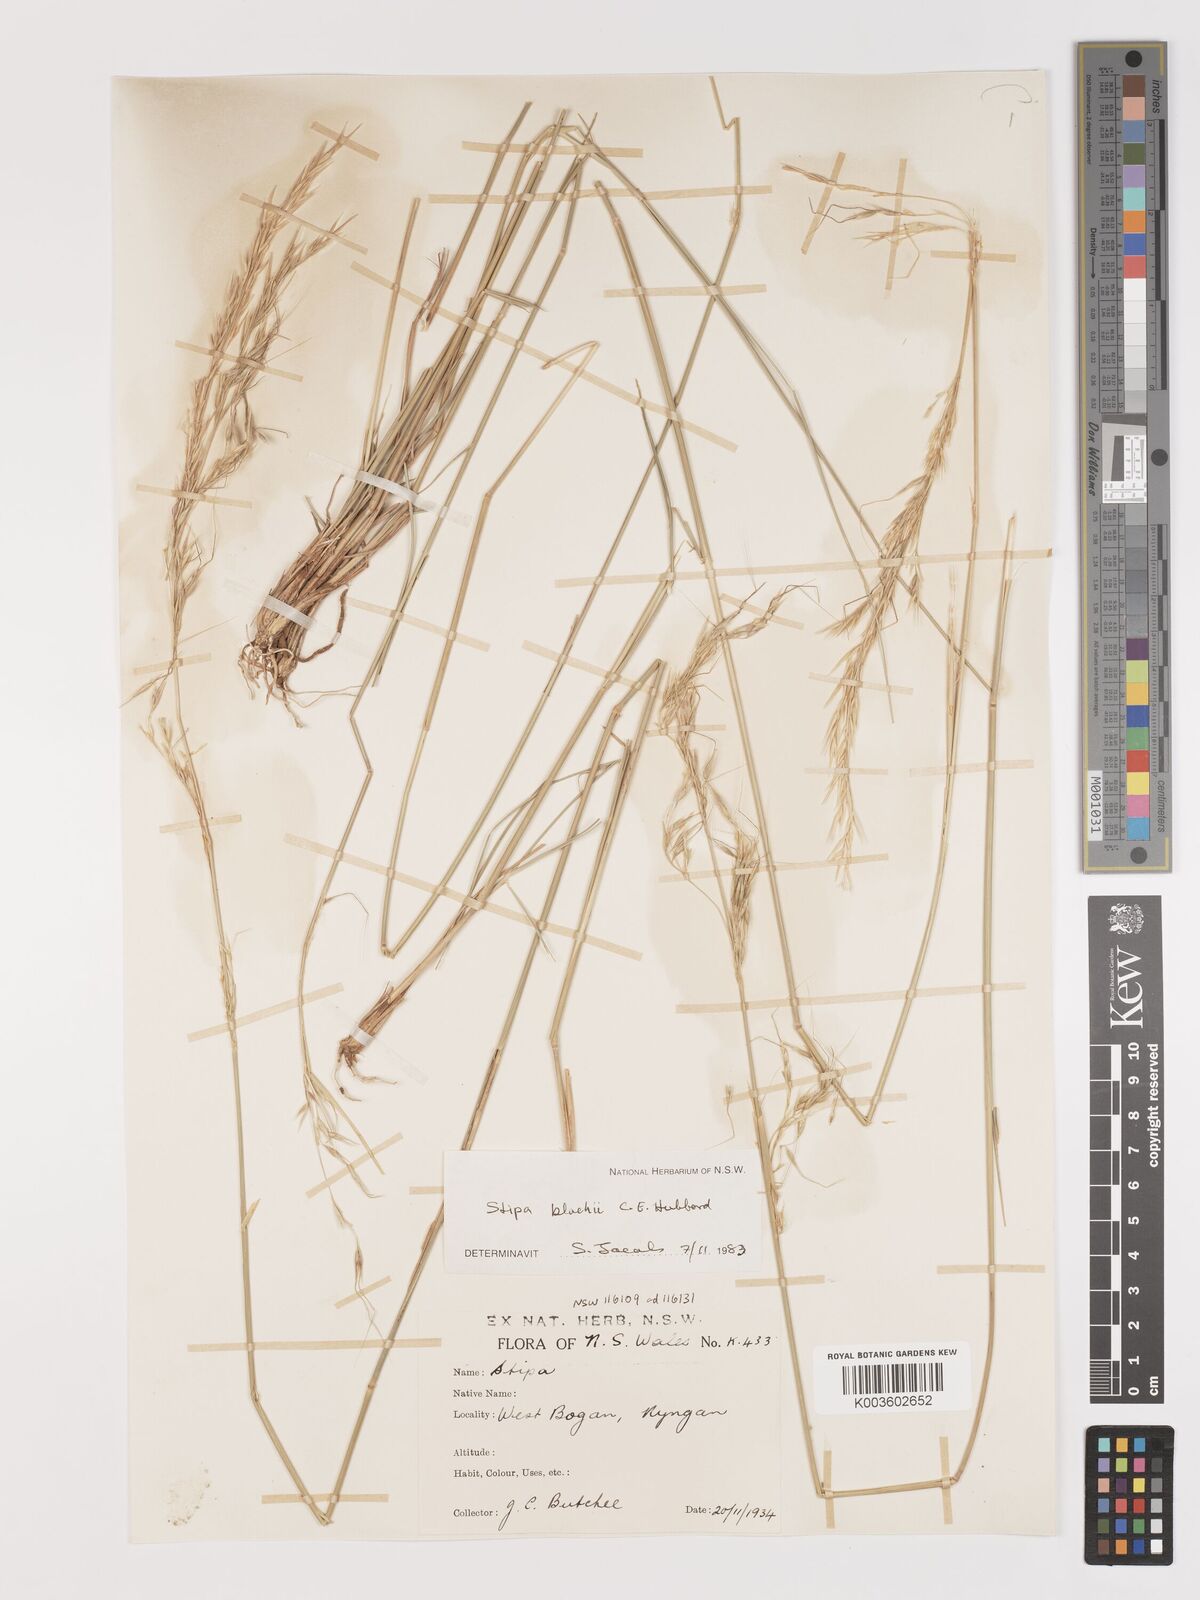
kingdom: Plantae
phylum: Tracheophyta
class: Liliopsida
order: Poales
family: Poaceae
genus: Austrostipa
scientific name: Austrostipa blackii
